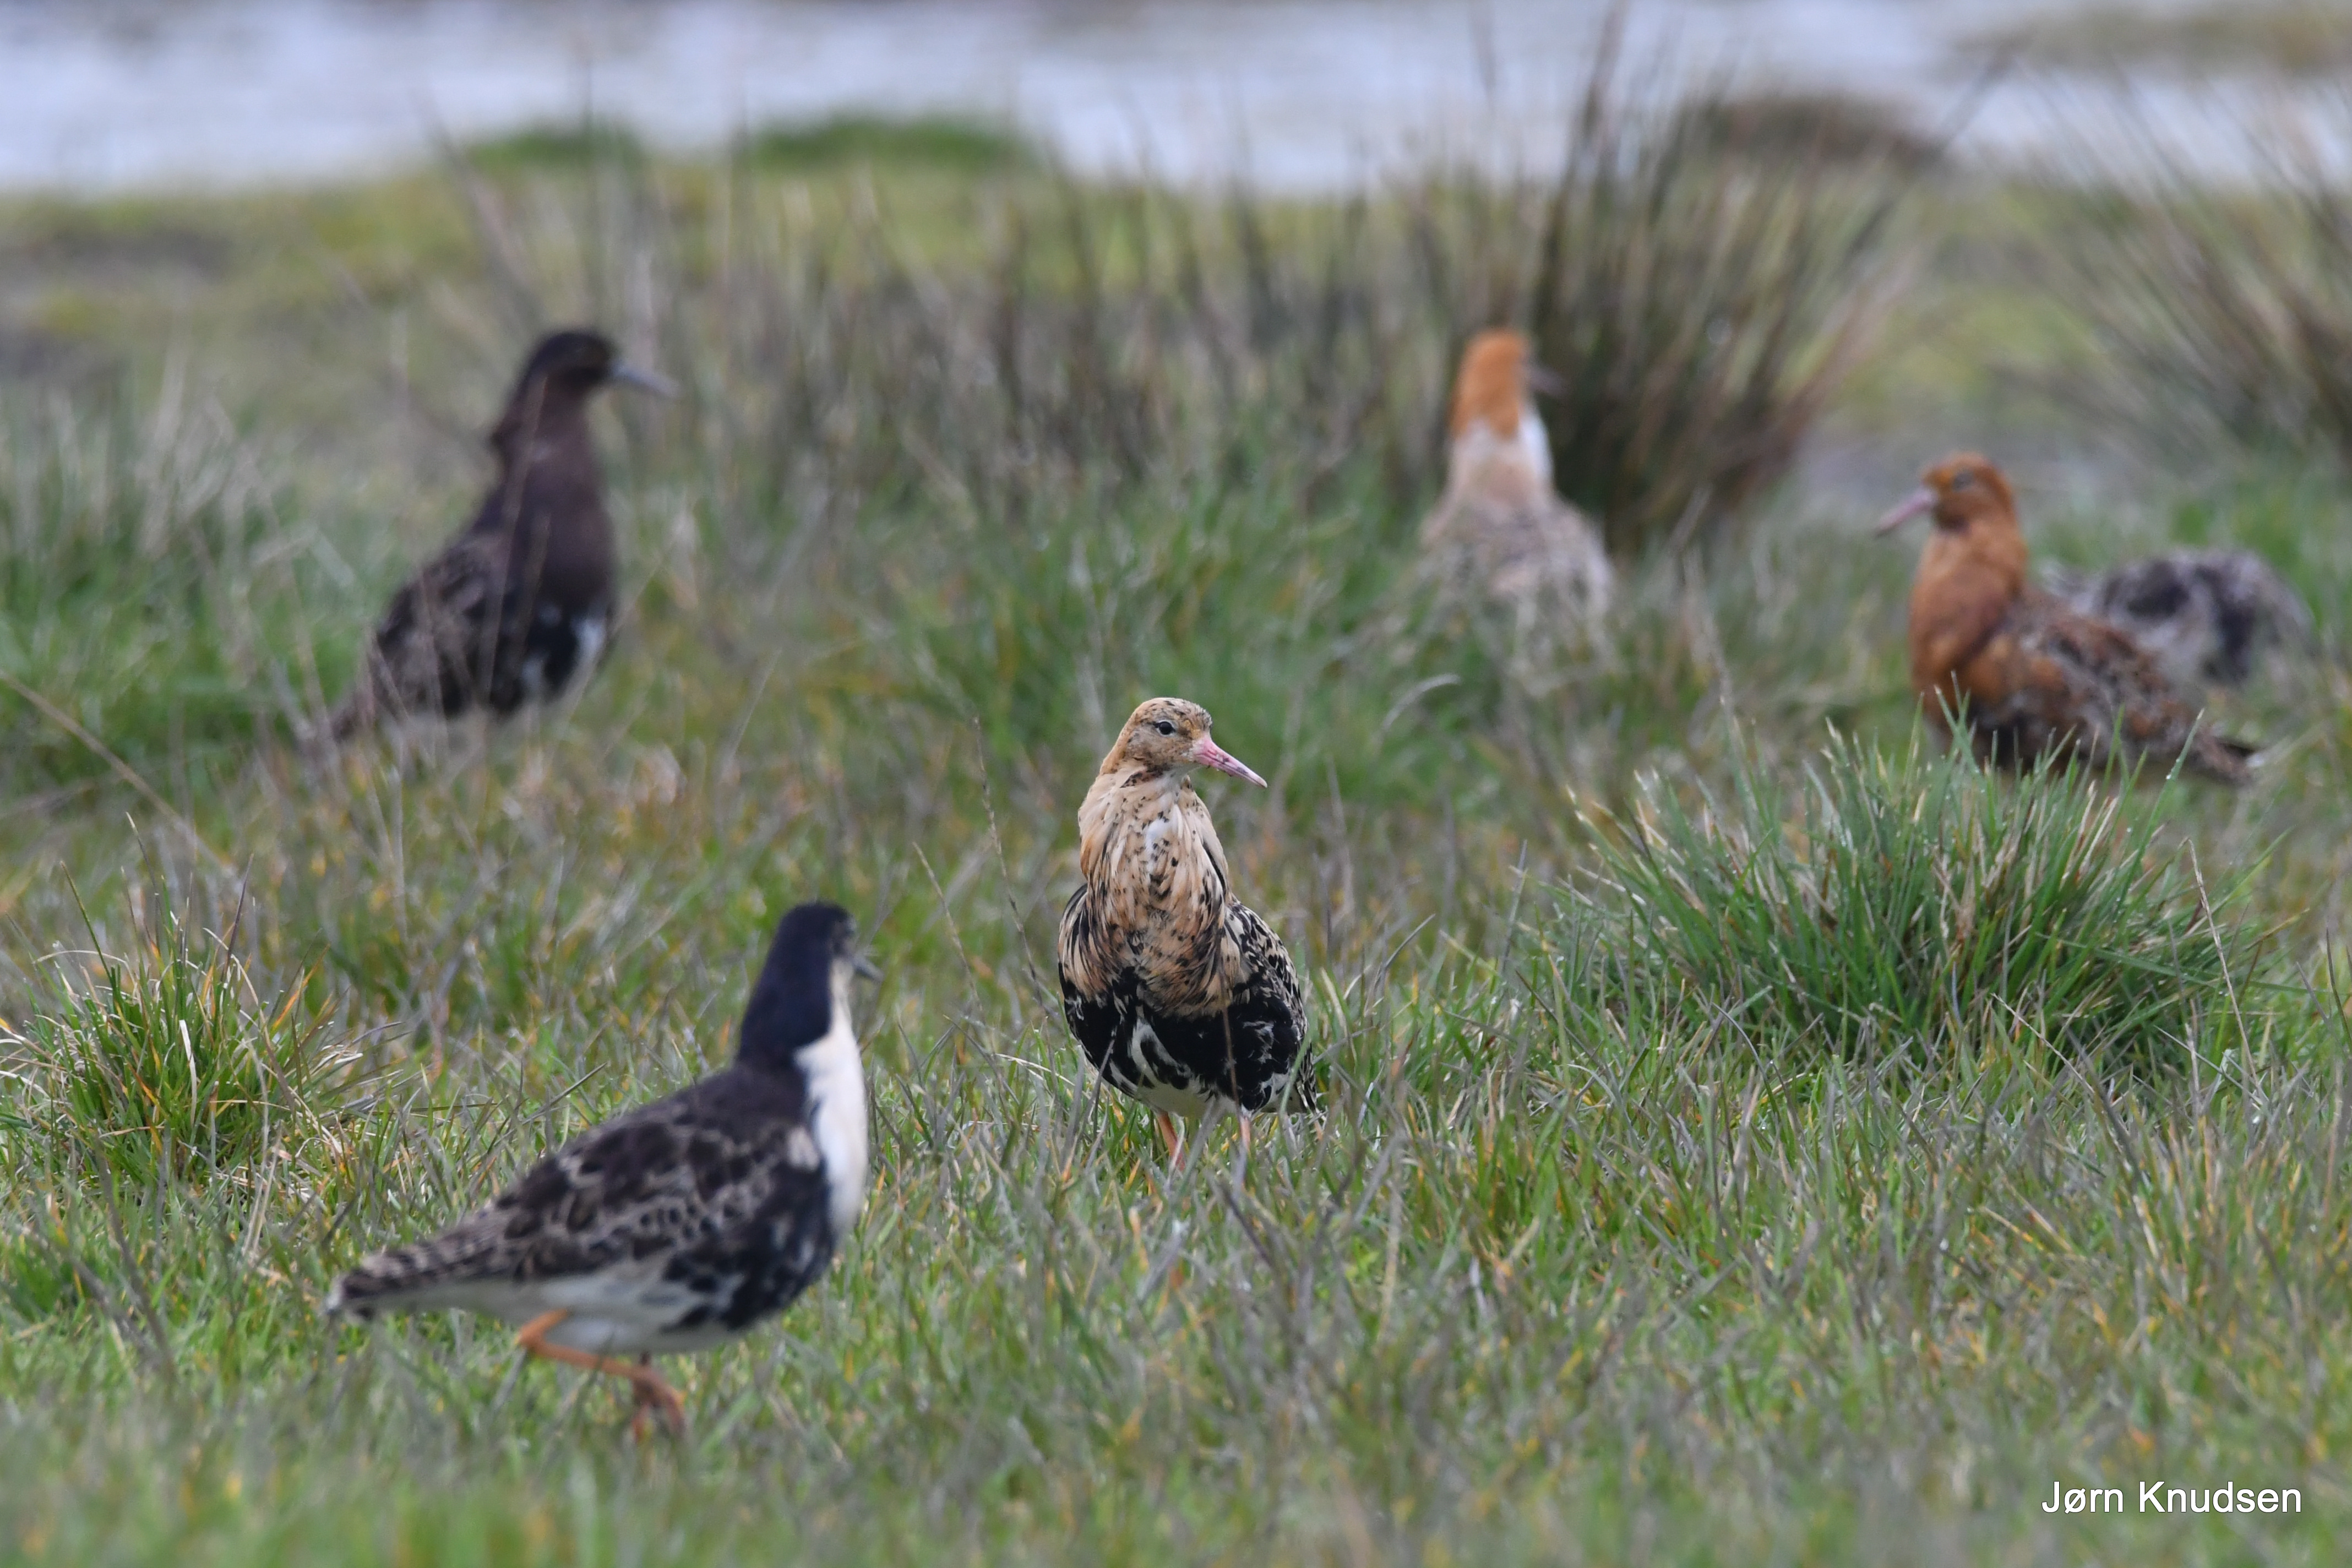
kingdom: Animalia
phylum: Chordata
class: Aves
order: Charadriiformes
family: Scolopacidae
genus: Calidris
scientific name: Calidris pugnax
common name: Brushane
